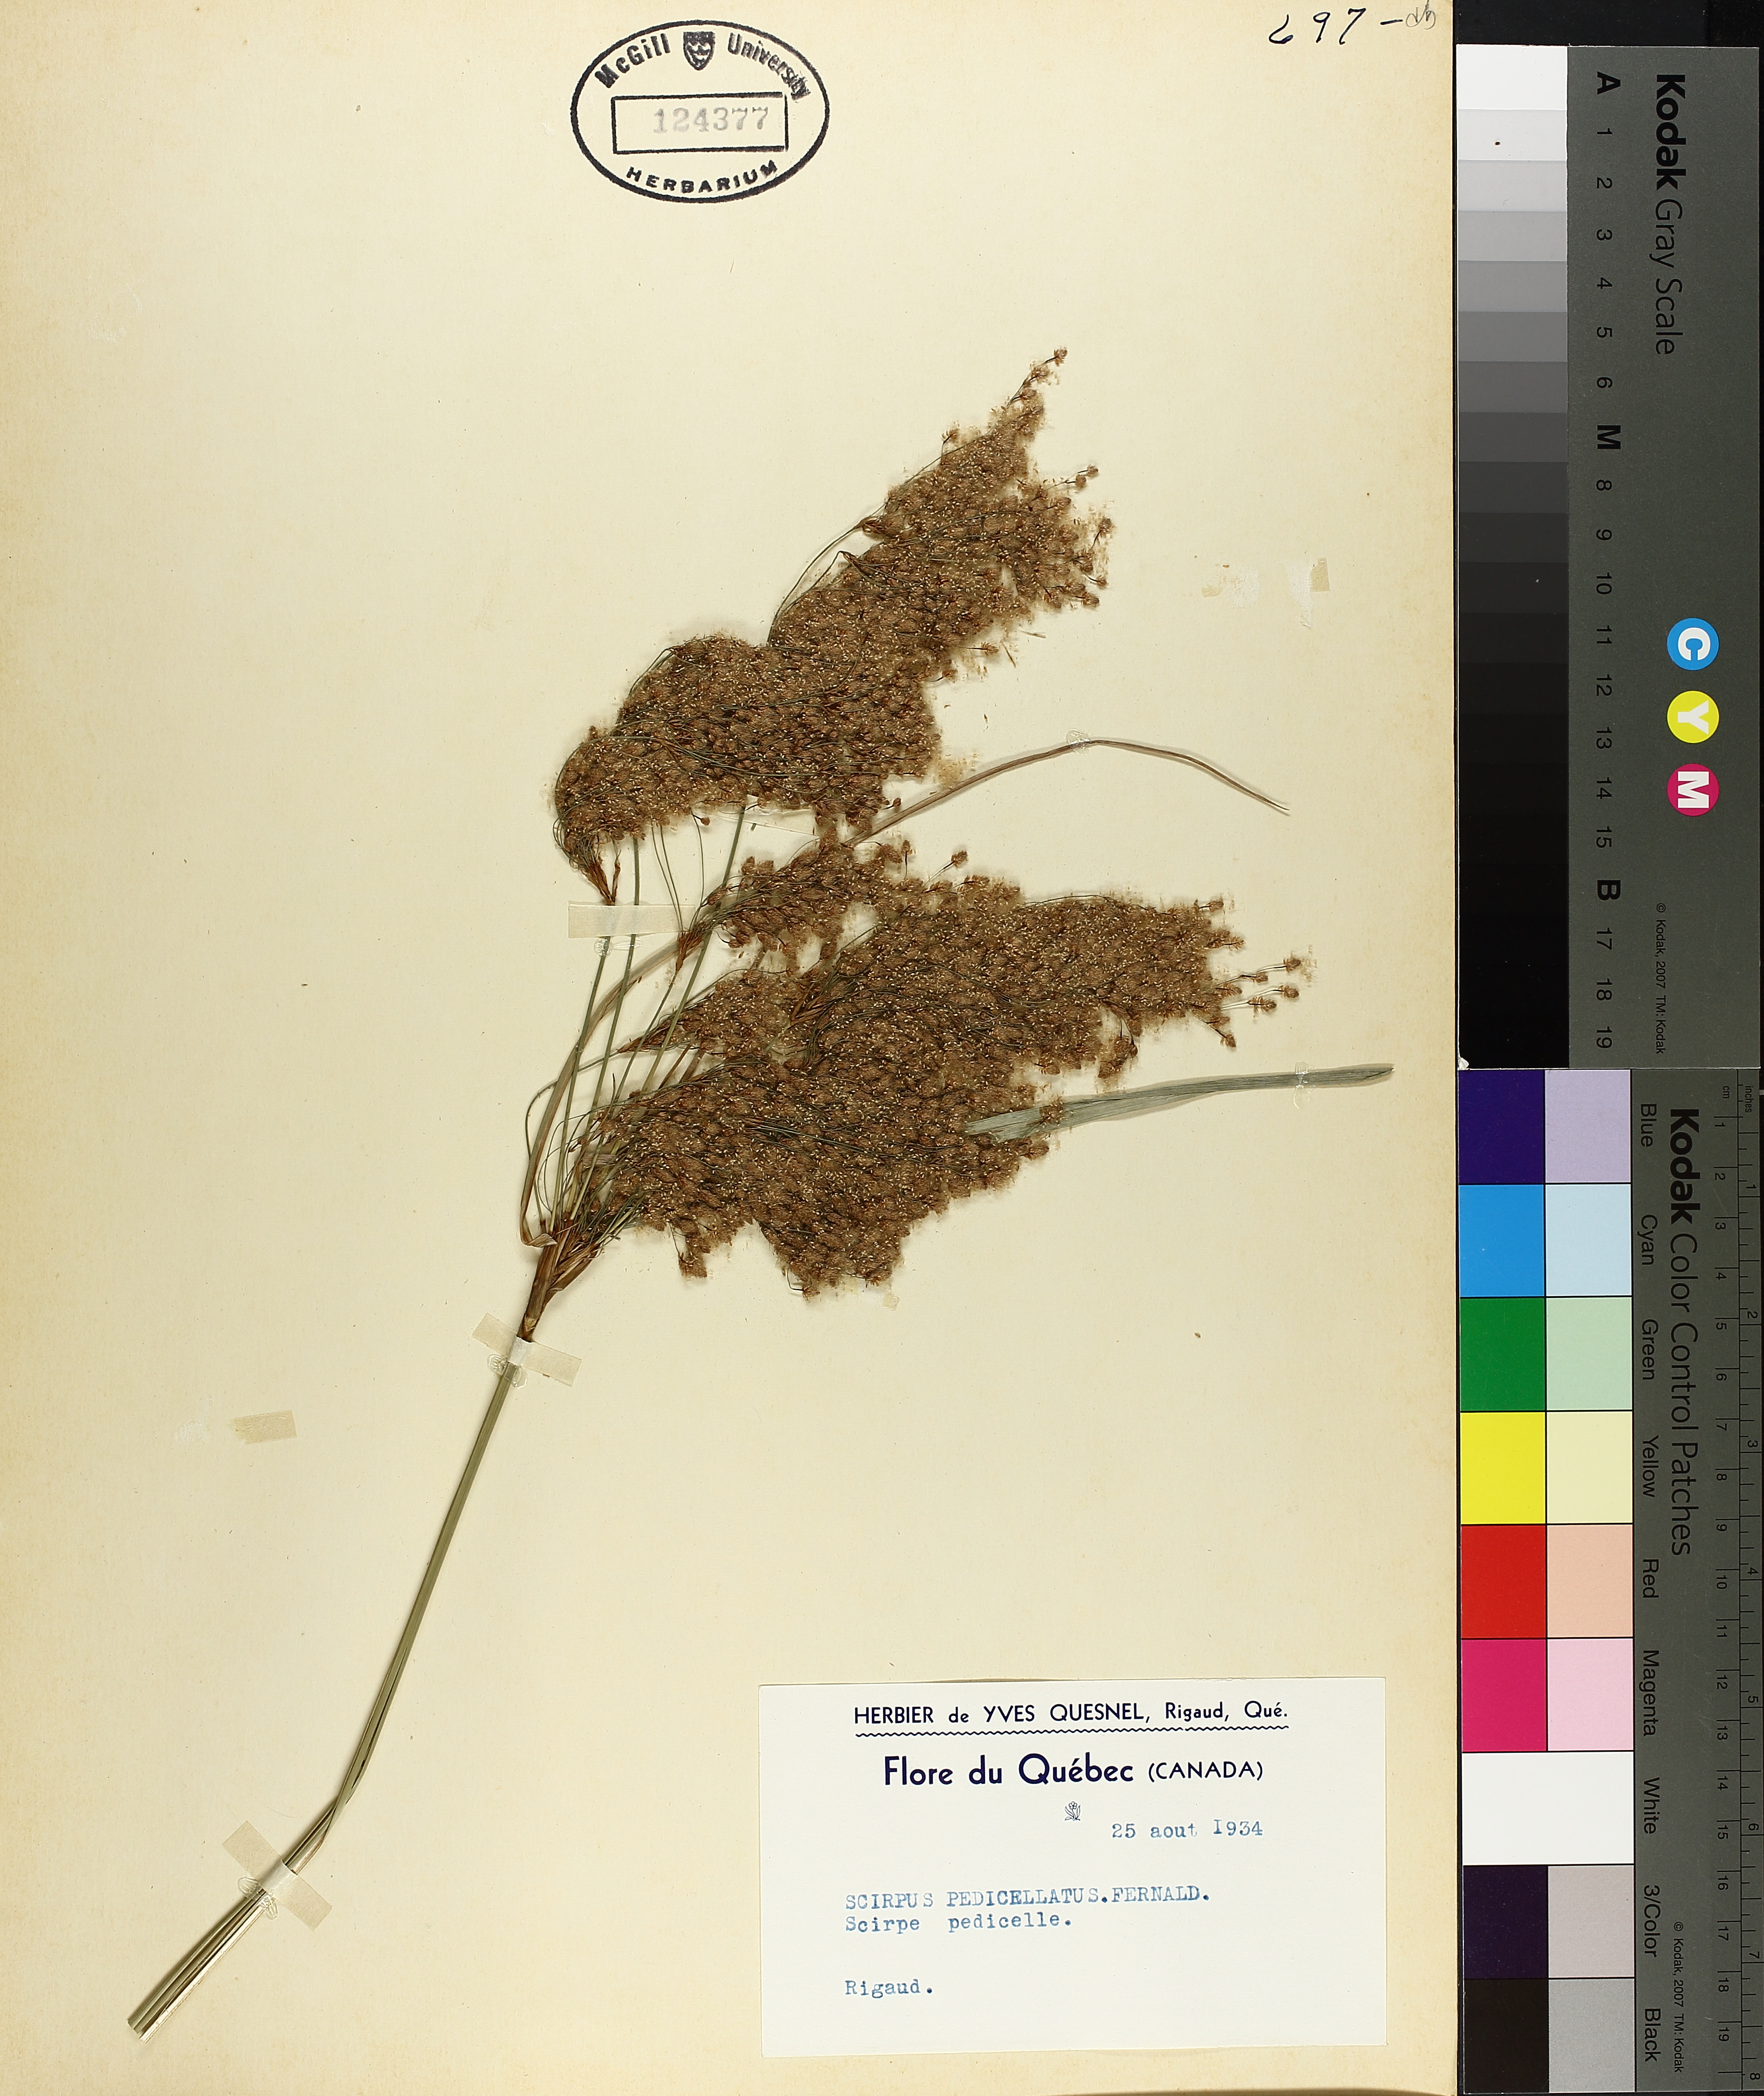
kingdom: Plantae
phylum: Tracheophyta
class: Liliopsida
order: Poales
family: Cyperaceae
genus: Scirpus
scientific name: Scirpus pedicellatus
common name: Pedicelled bulrush
